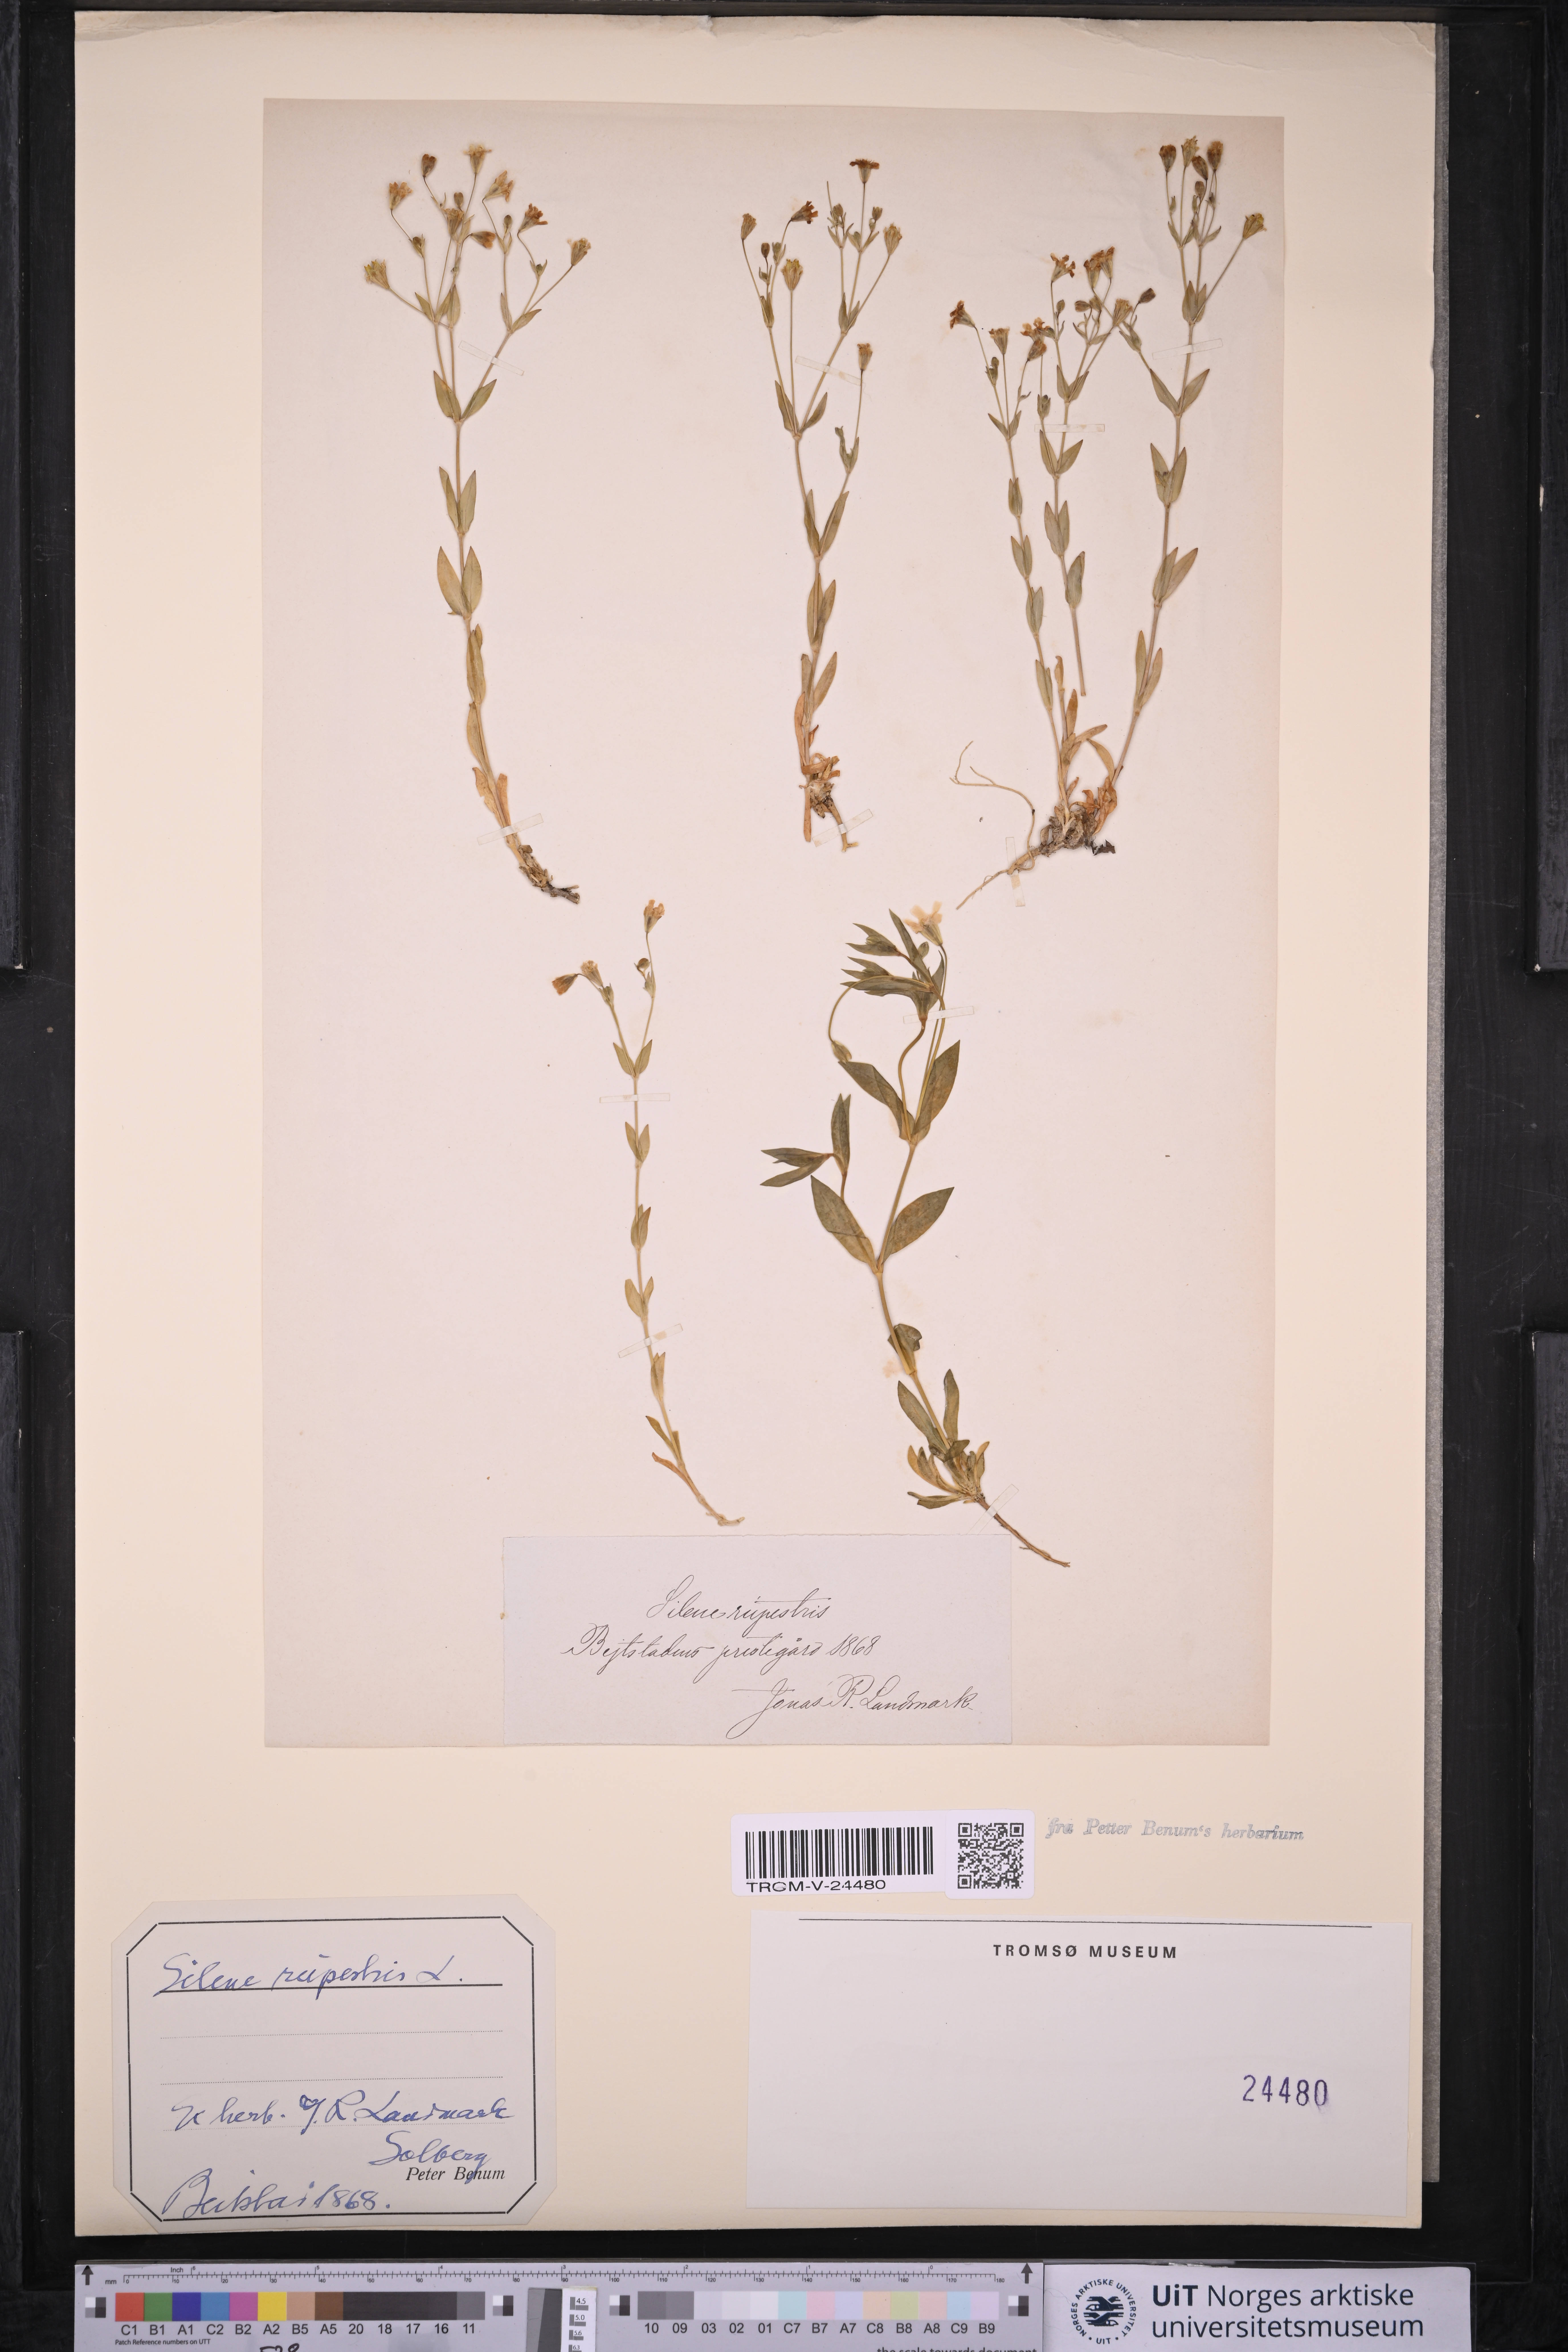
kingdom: Plantae
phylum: Tracheophyta
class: Magnoliopsida
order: Caryophyllales
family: Caryophyllaceae
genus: Atocion
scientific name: Atocion rupestre
